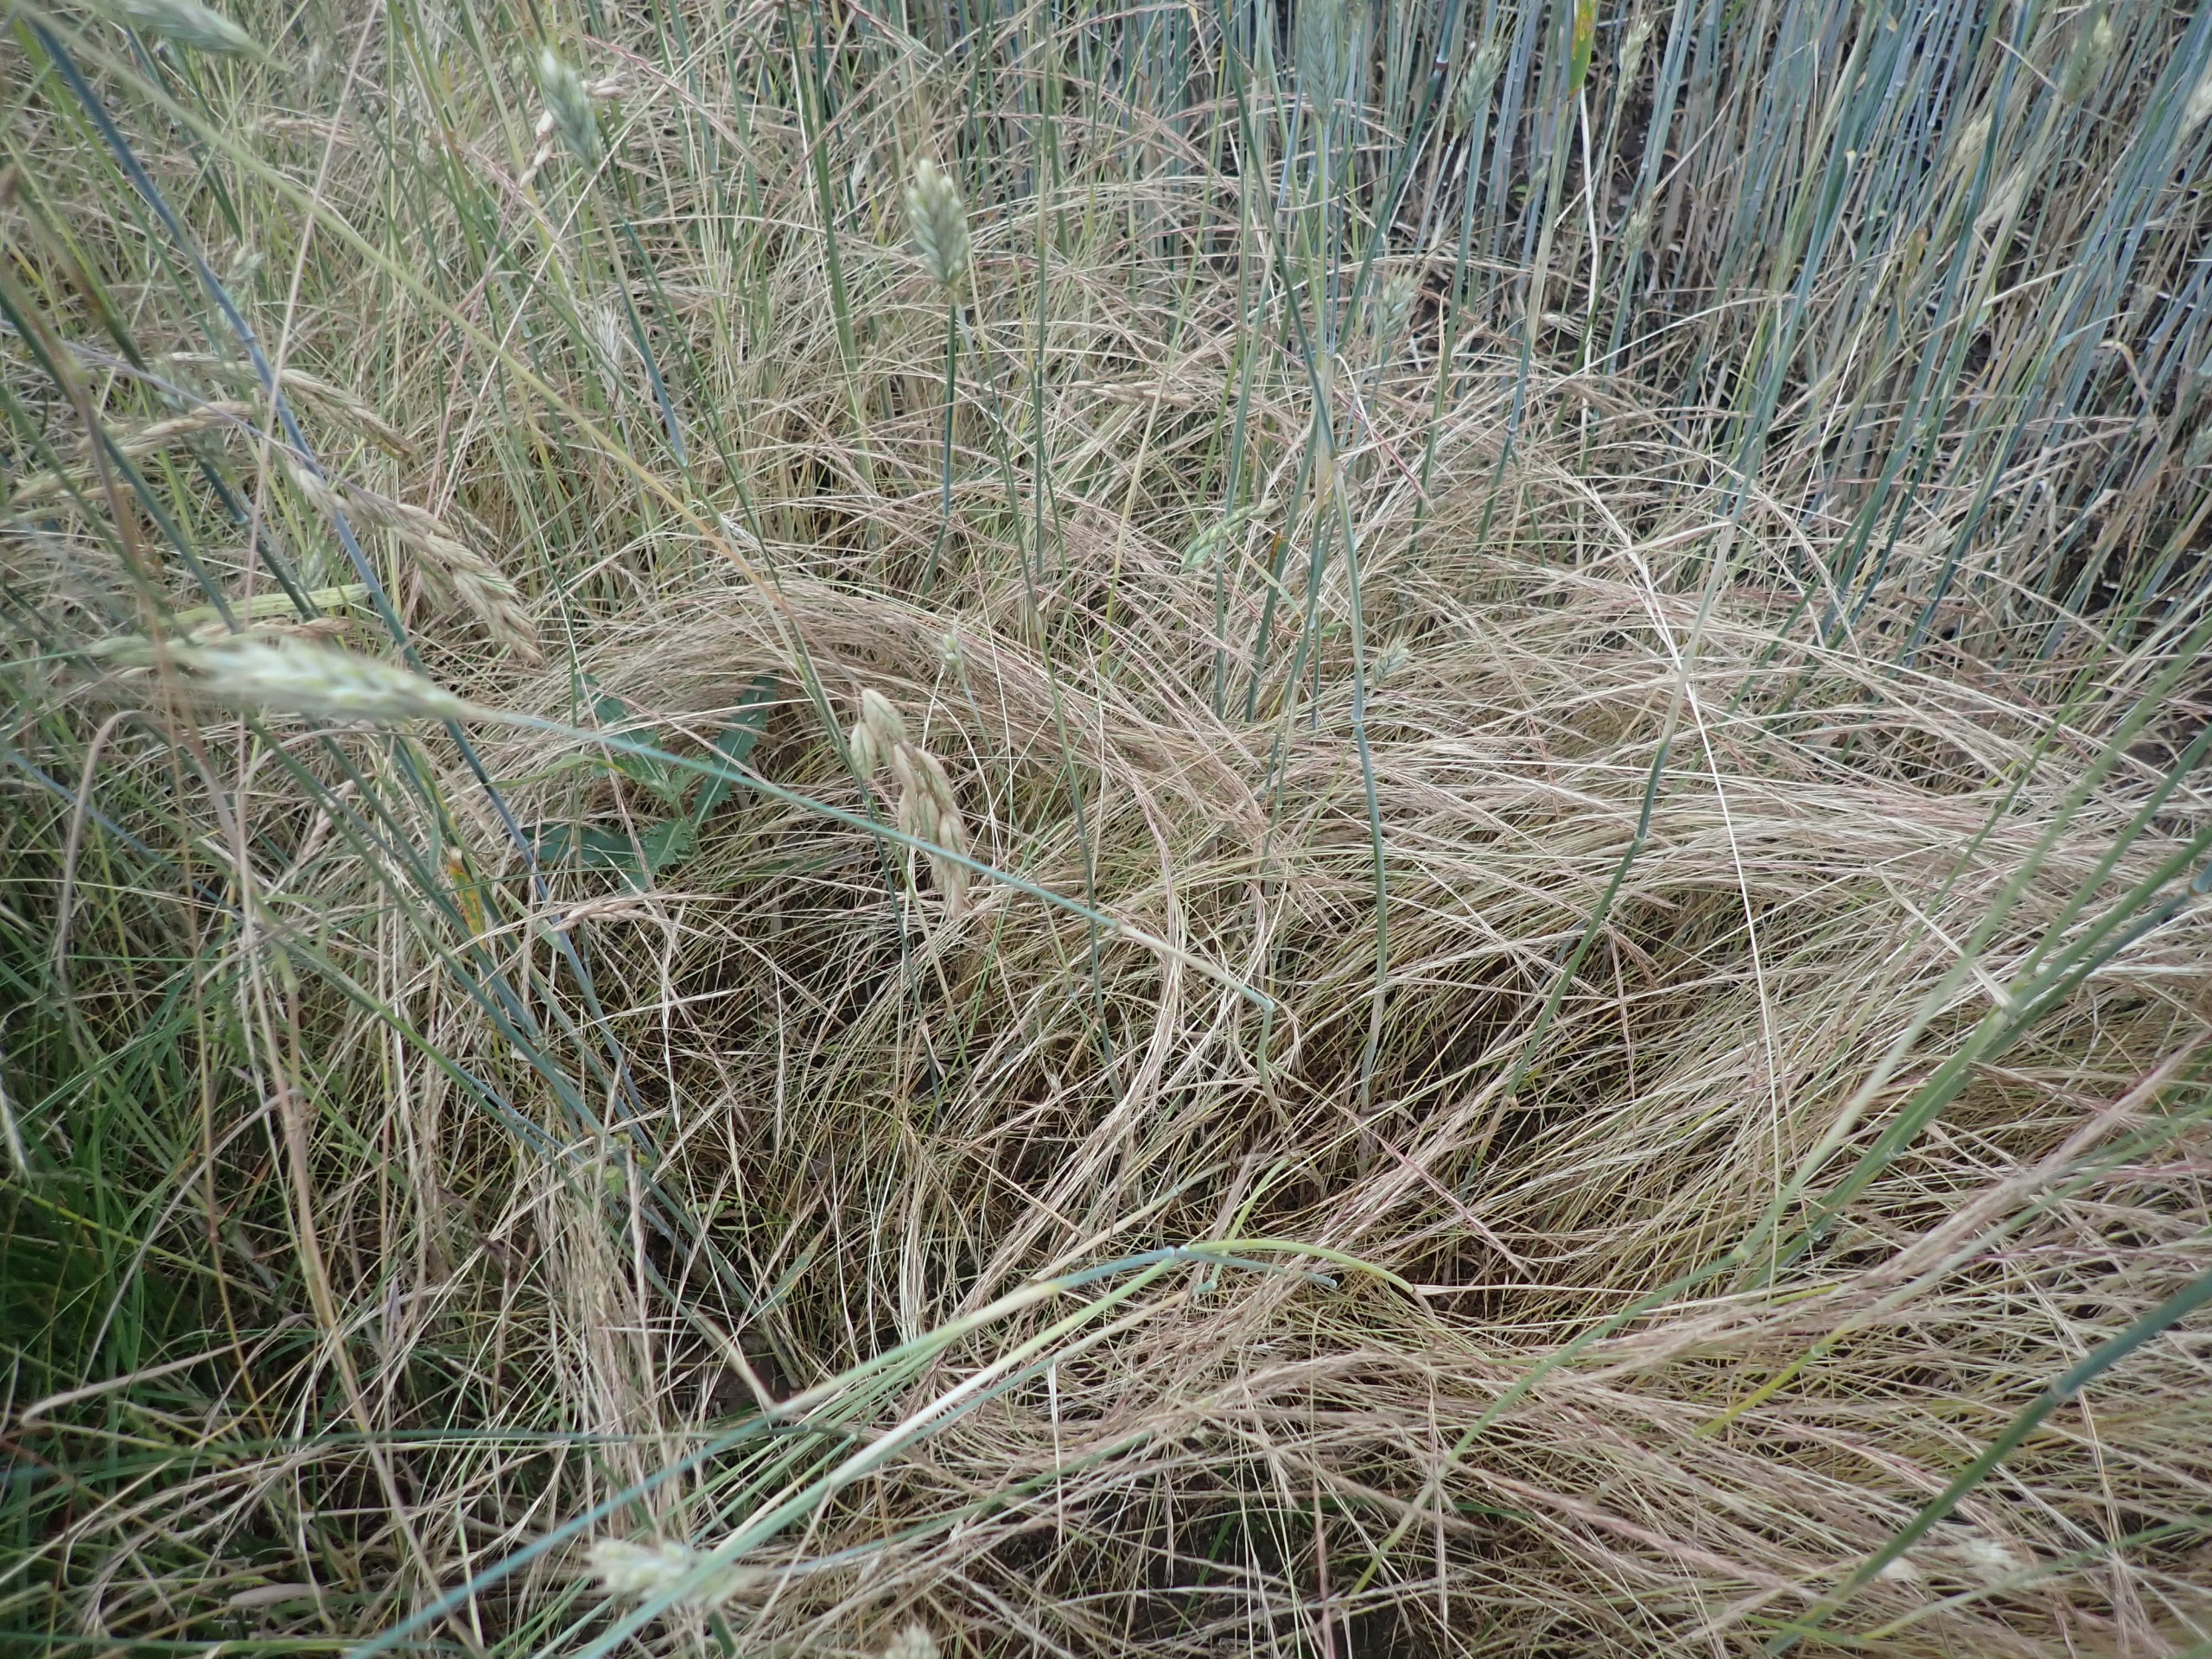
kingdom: Plantae
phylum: Tracheophyta
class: Liliopsida
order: Poales
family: Poaceae
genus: Festuca
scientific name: Festuca myuros
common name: Stor væselhale
